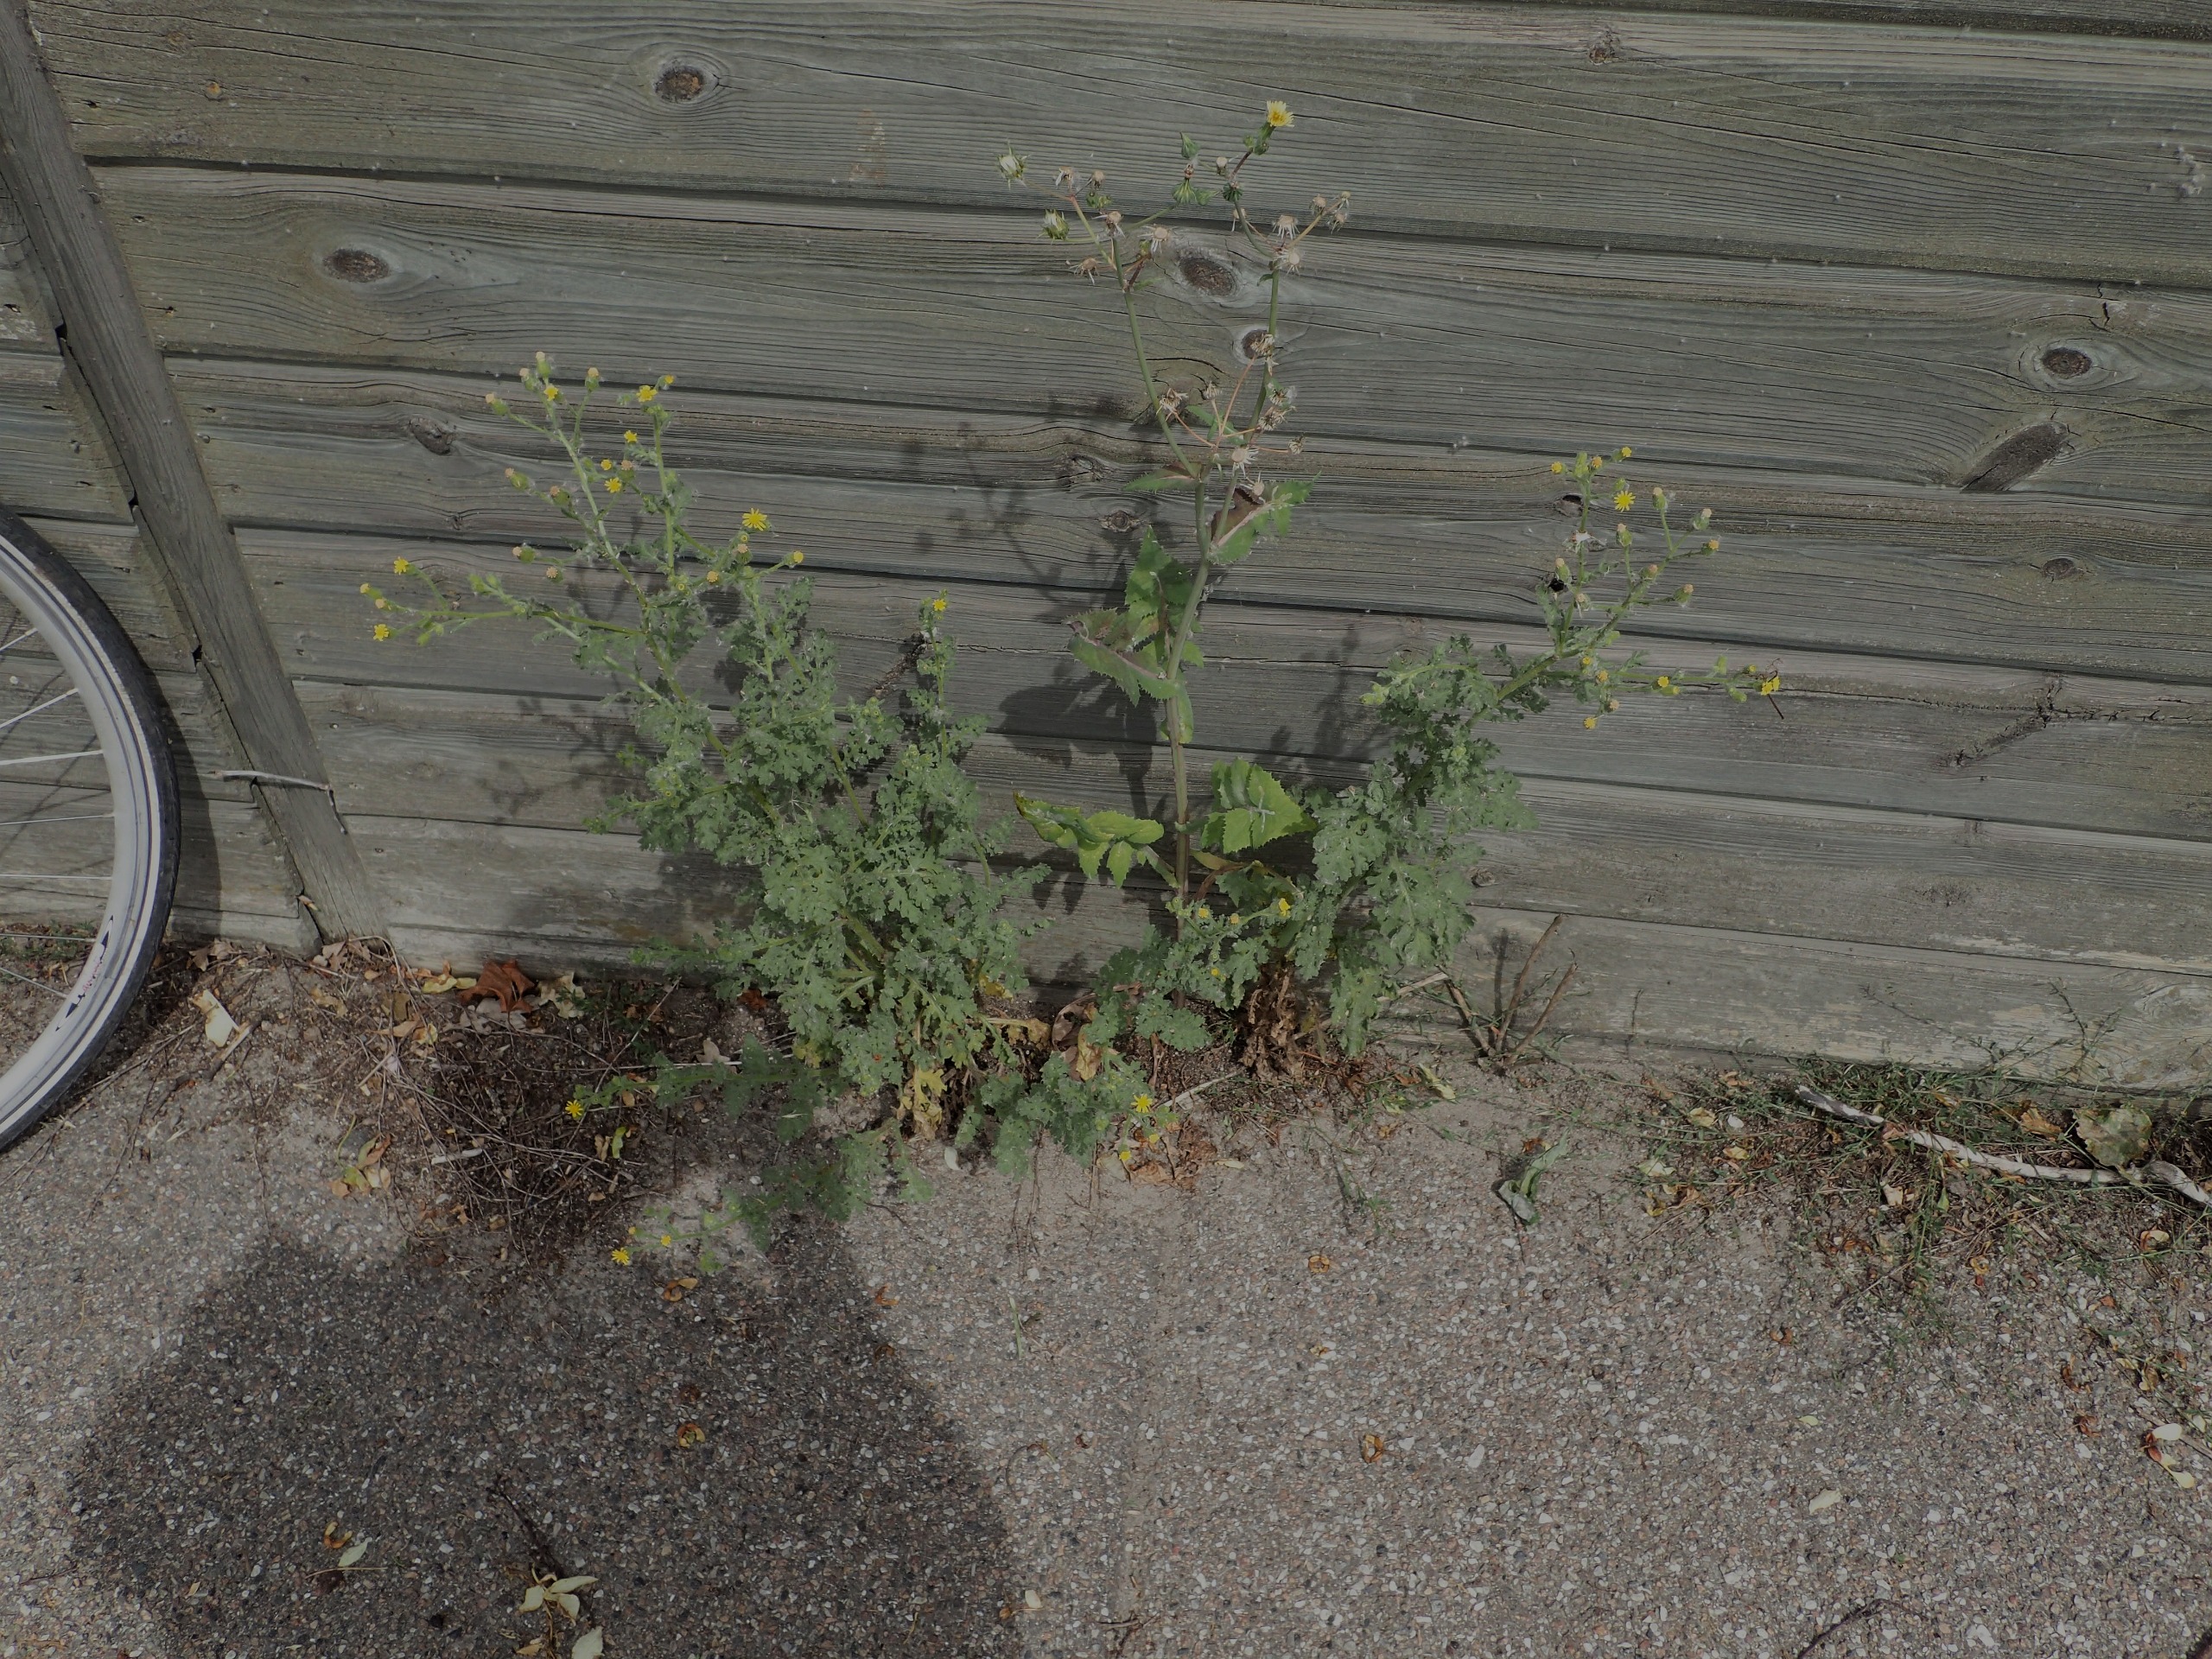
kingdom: Plantae
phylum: Tracheophyta
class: Magnoliopsida
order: Asterales
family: Asteraceae
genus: Senecio
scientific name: Senecio viscosus
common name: Klæbrig brandbæger
